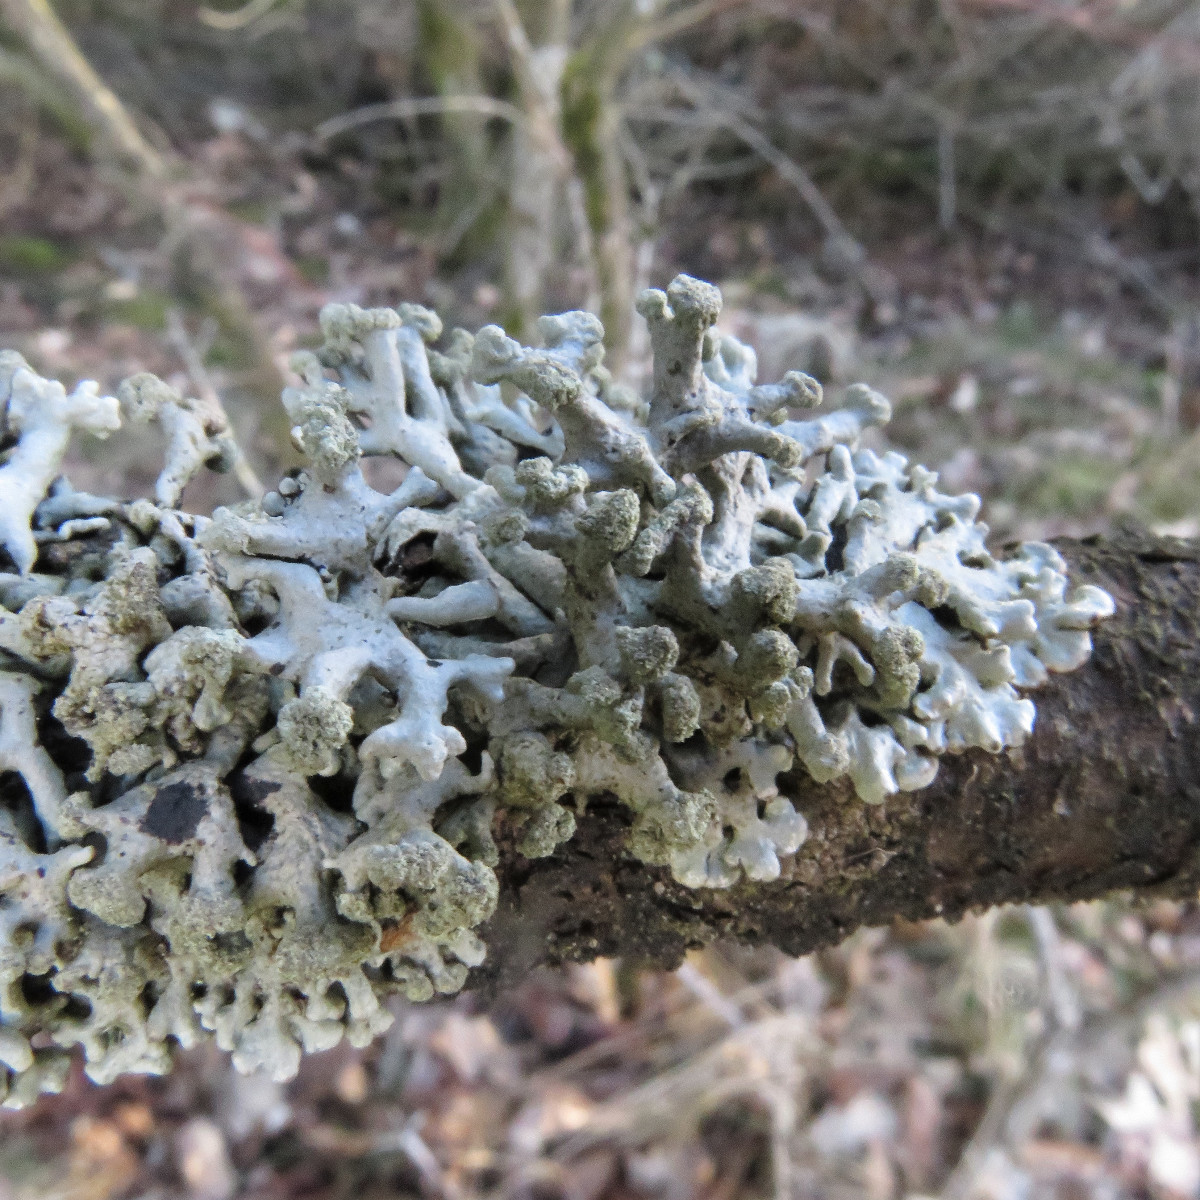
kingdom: Fungi
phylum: Ascomycota
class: Lecanoromycetes
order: Lecanorales
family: Parmeliaceae
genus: Hypogymnia
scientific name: Hypogymnia tubulosa
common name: finger-kvistlav
